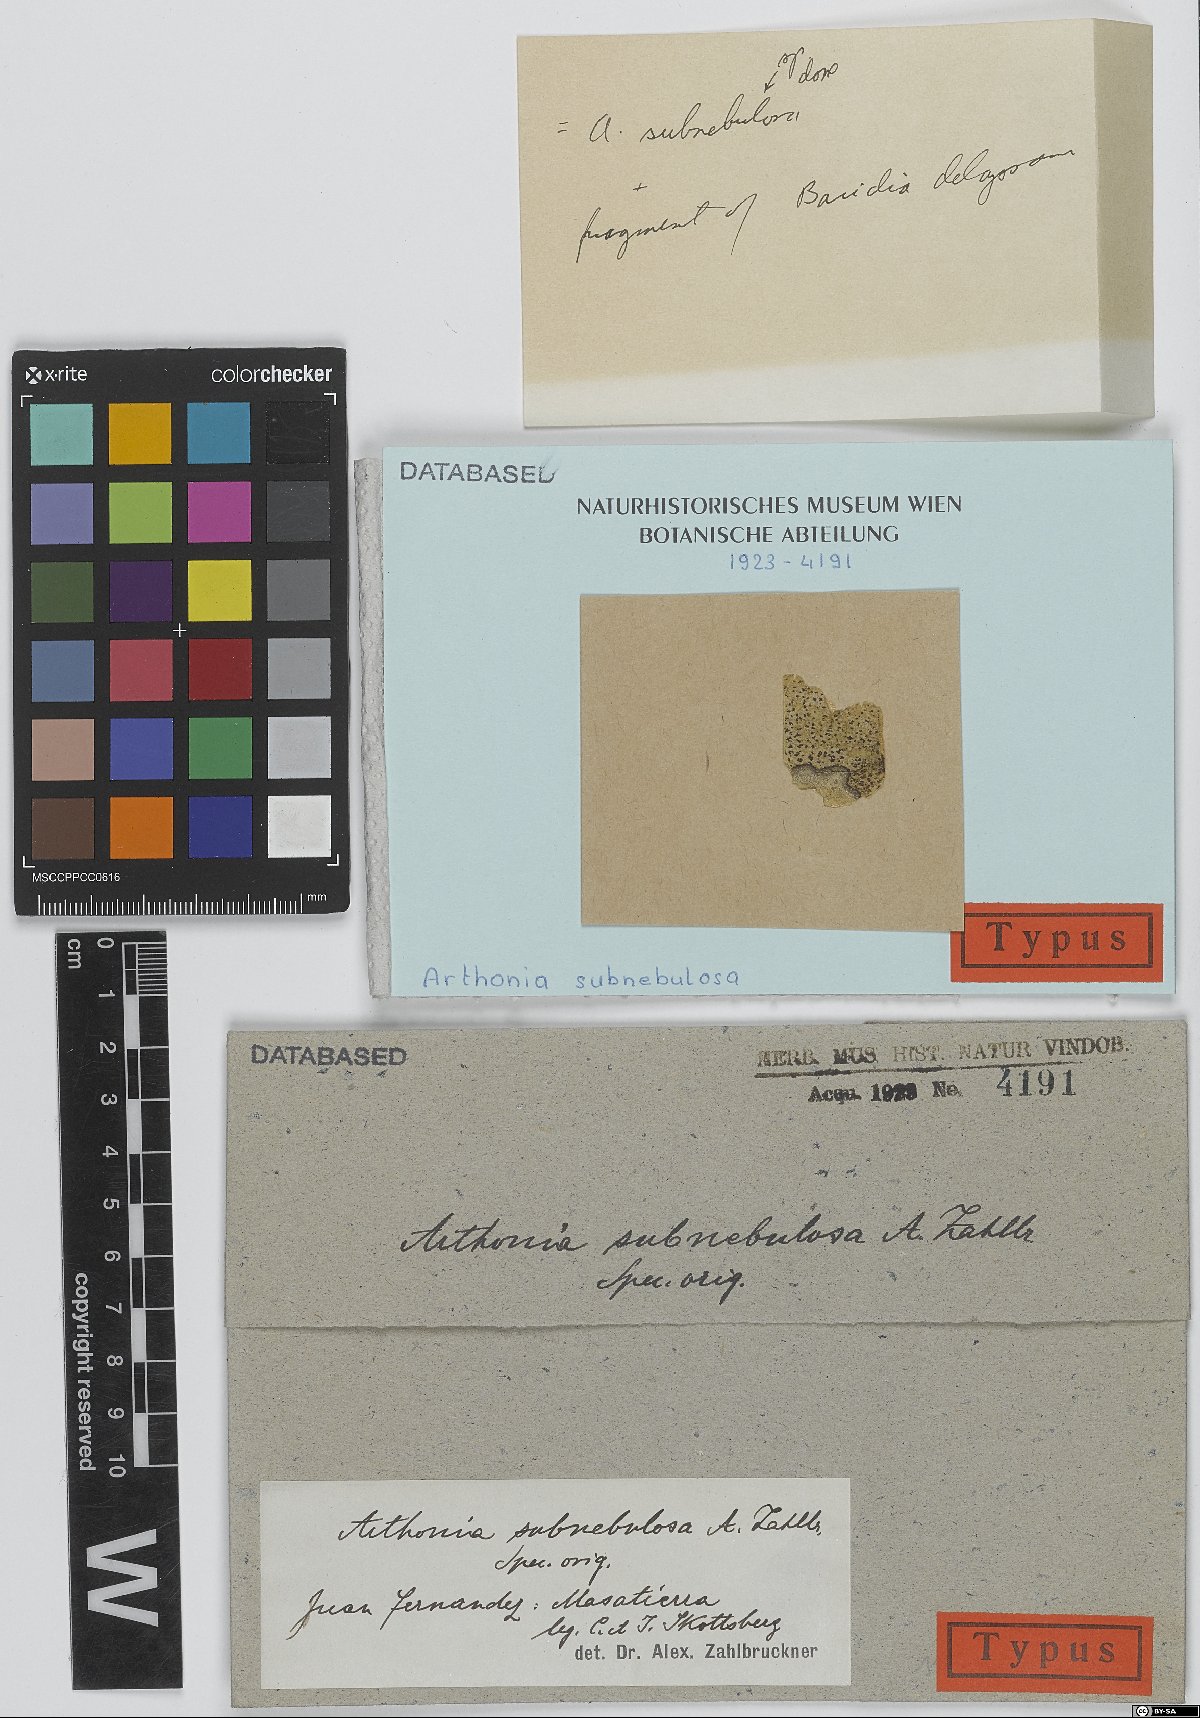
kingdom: Fungi
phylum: Ascomycota
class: Arthoniomycetes
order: Arthoniales
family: Arthoniaceae
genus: Arthonia
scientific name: Arthonia
